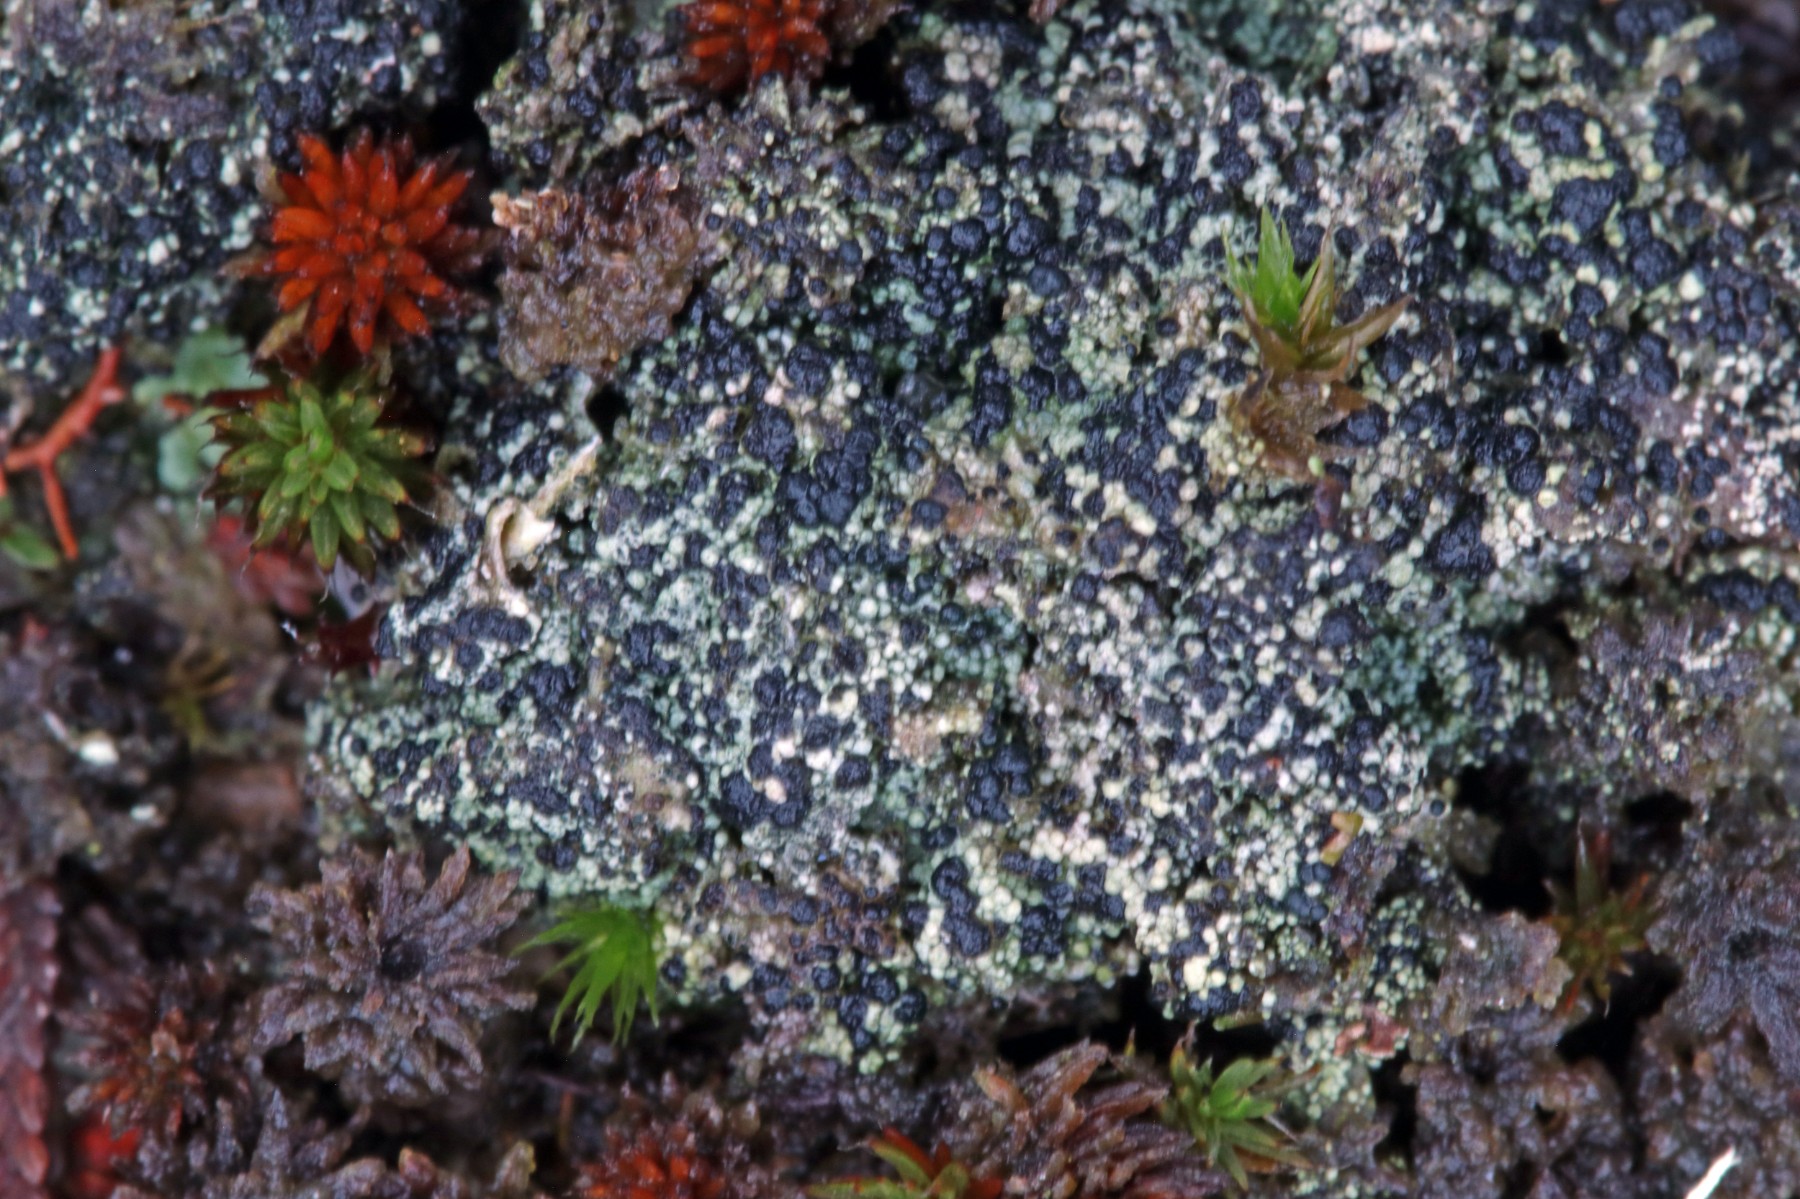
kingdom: Fungi
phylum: Ascomycota
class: Lecanoromycetes
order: Lecanorales
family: Byssolomataceae
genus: Micarea
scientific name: Micarea lignaria
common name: tørve-knaplav
